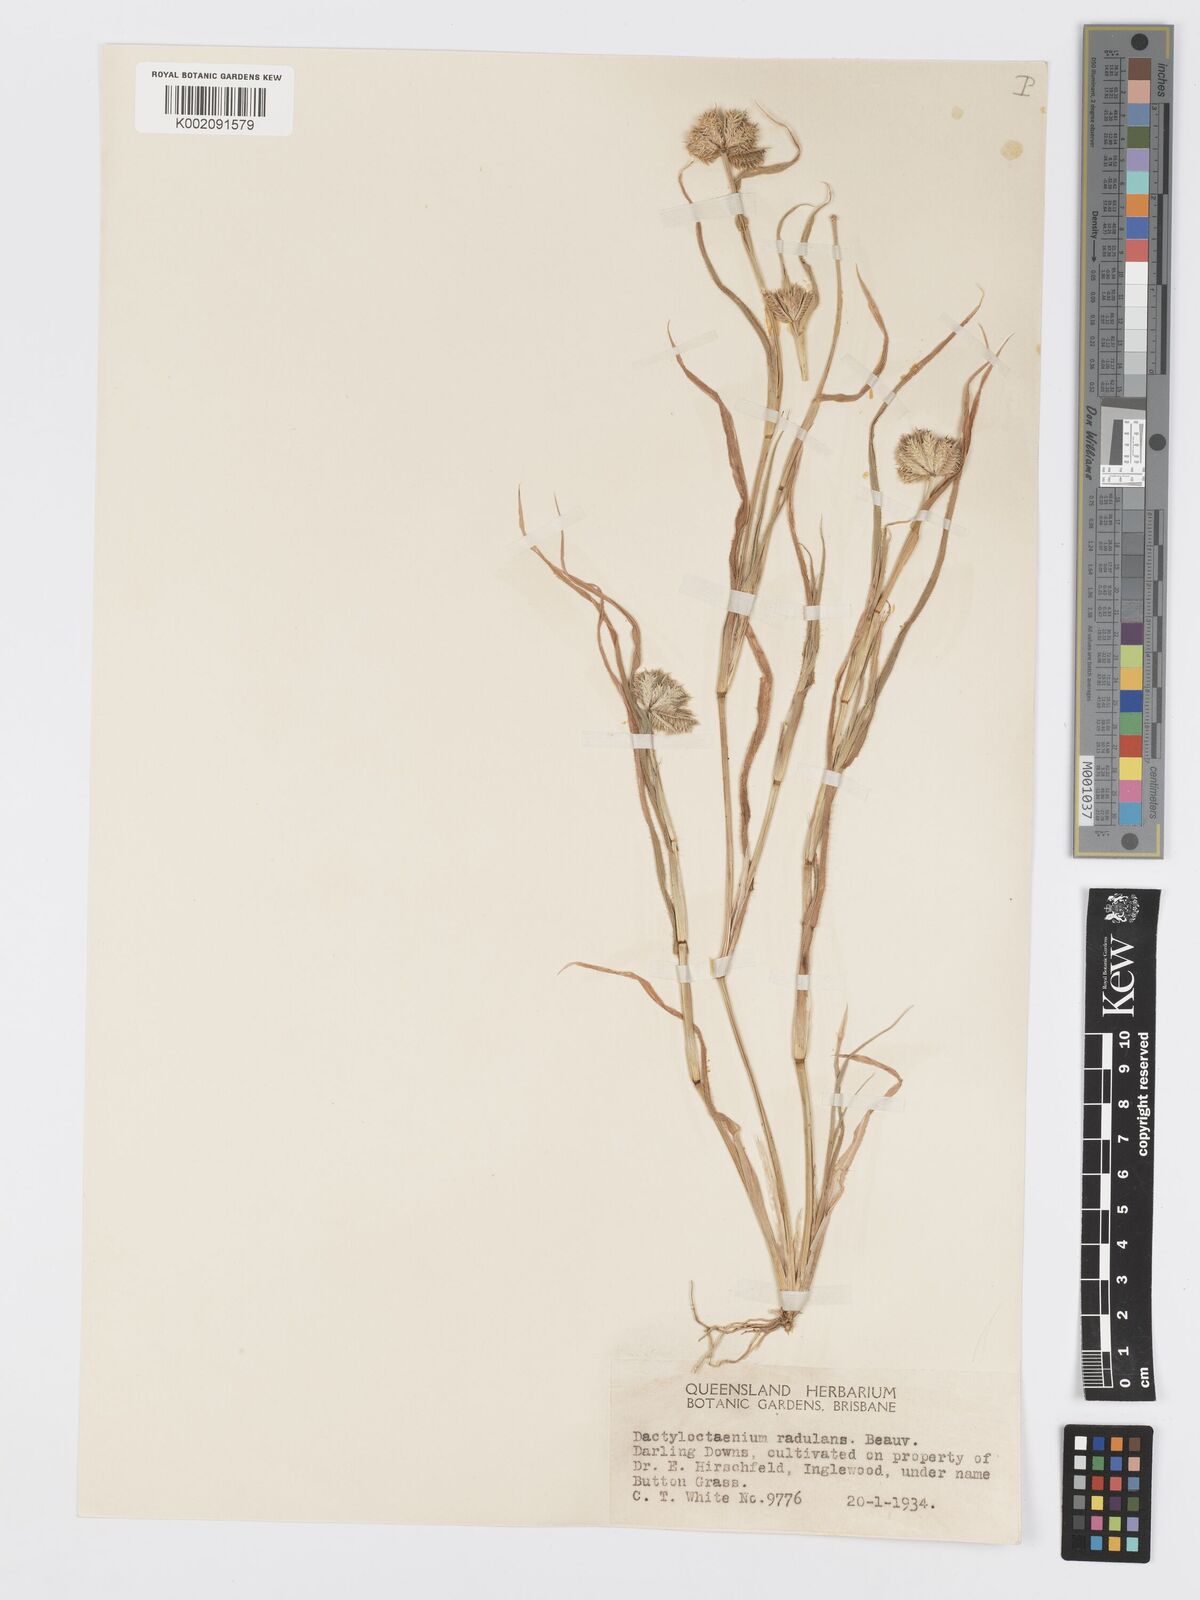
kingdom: Plantae
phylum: Tracheophyta
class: Liliopsida
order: Poales
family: Poaceae
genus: Dactyloctenium
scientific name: Dactyloctenium radulans
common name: Button-grass
